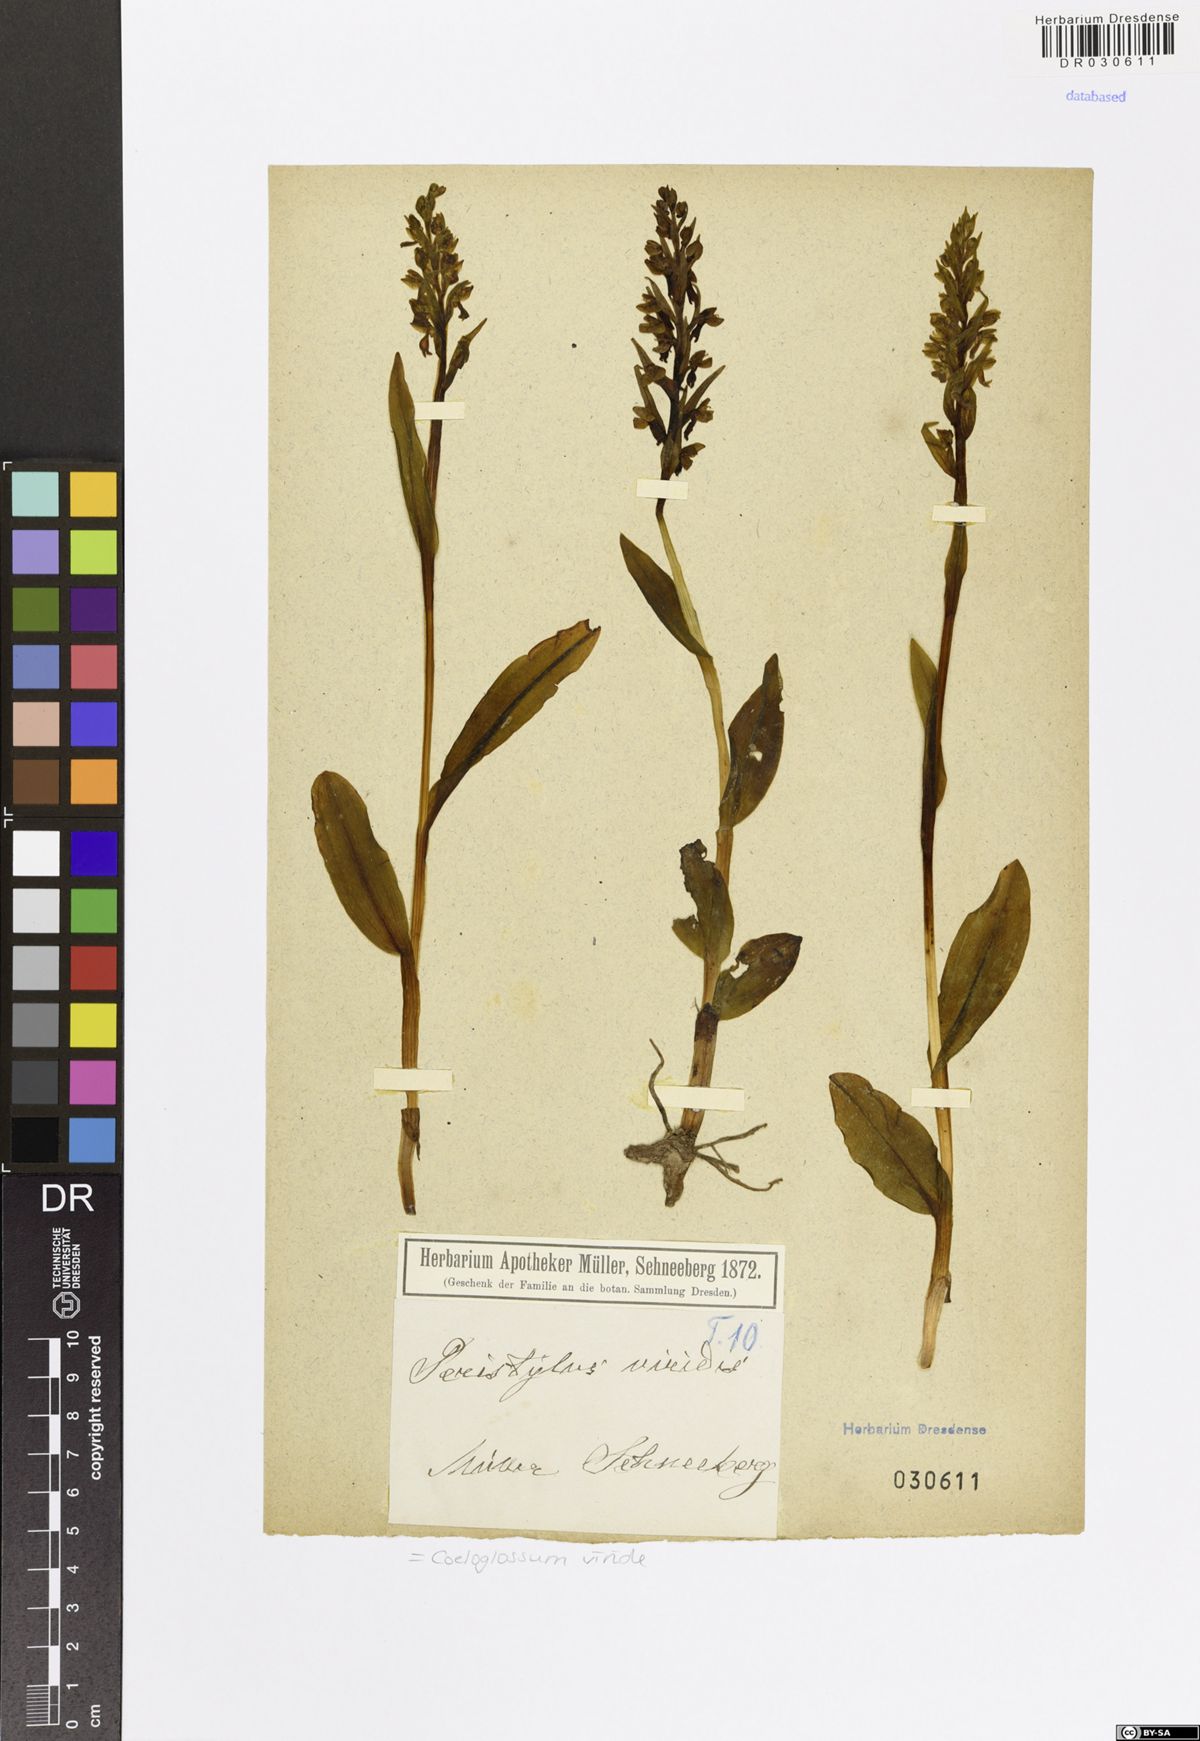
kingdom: Plantae
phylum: Tracheophyta
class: Liliopsida
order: Asparagales
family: Orchidaceae
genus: Dactylorhiza
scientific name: Dactylorhiza viridis
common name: Longbract frog orchid
